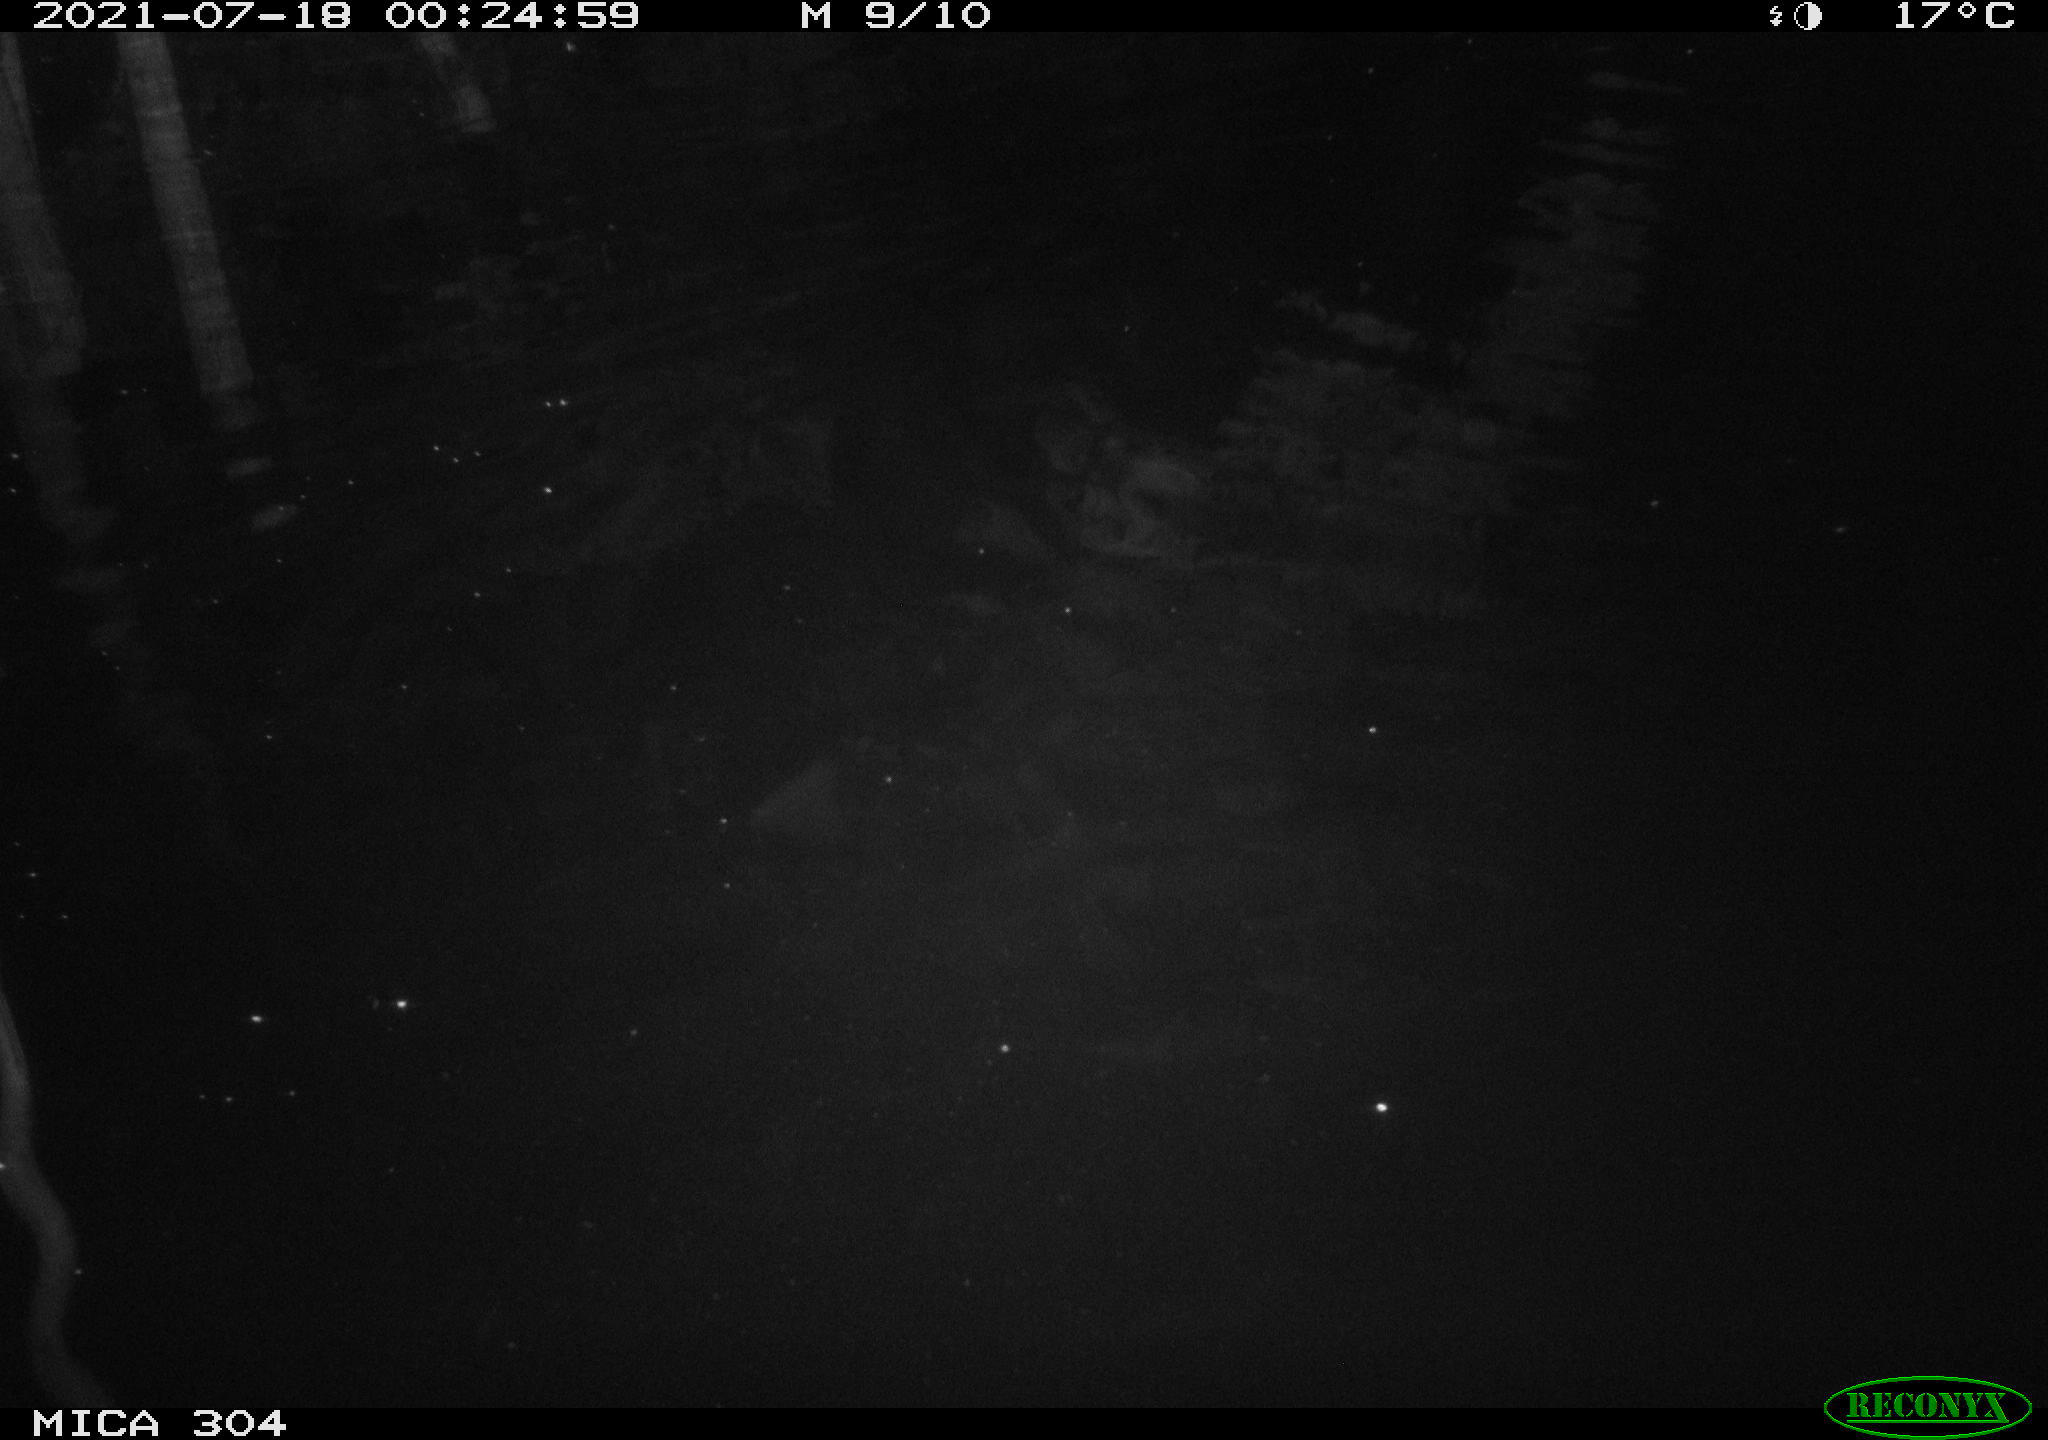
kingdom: Animalia
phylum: Chordata
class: Mammalia
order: Rodentia
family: Cricetidae
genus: Ondatra
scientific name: Ondatra zibethicus
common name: Muskrat
